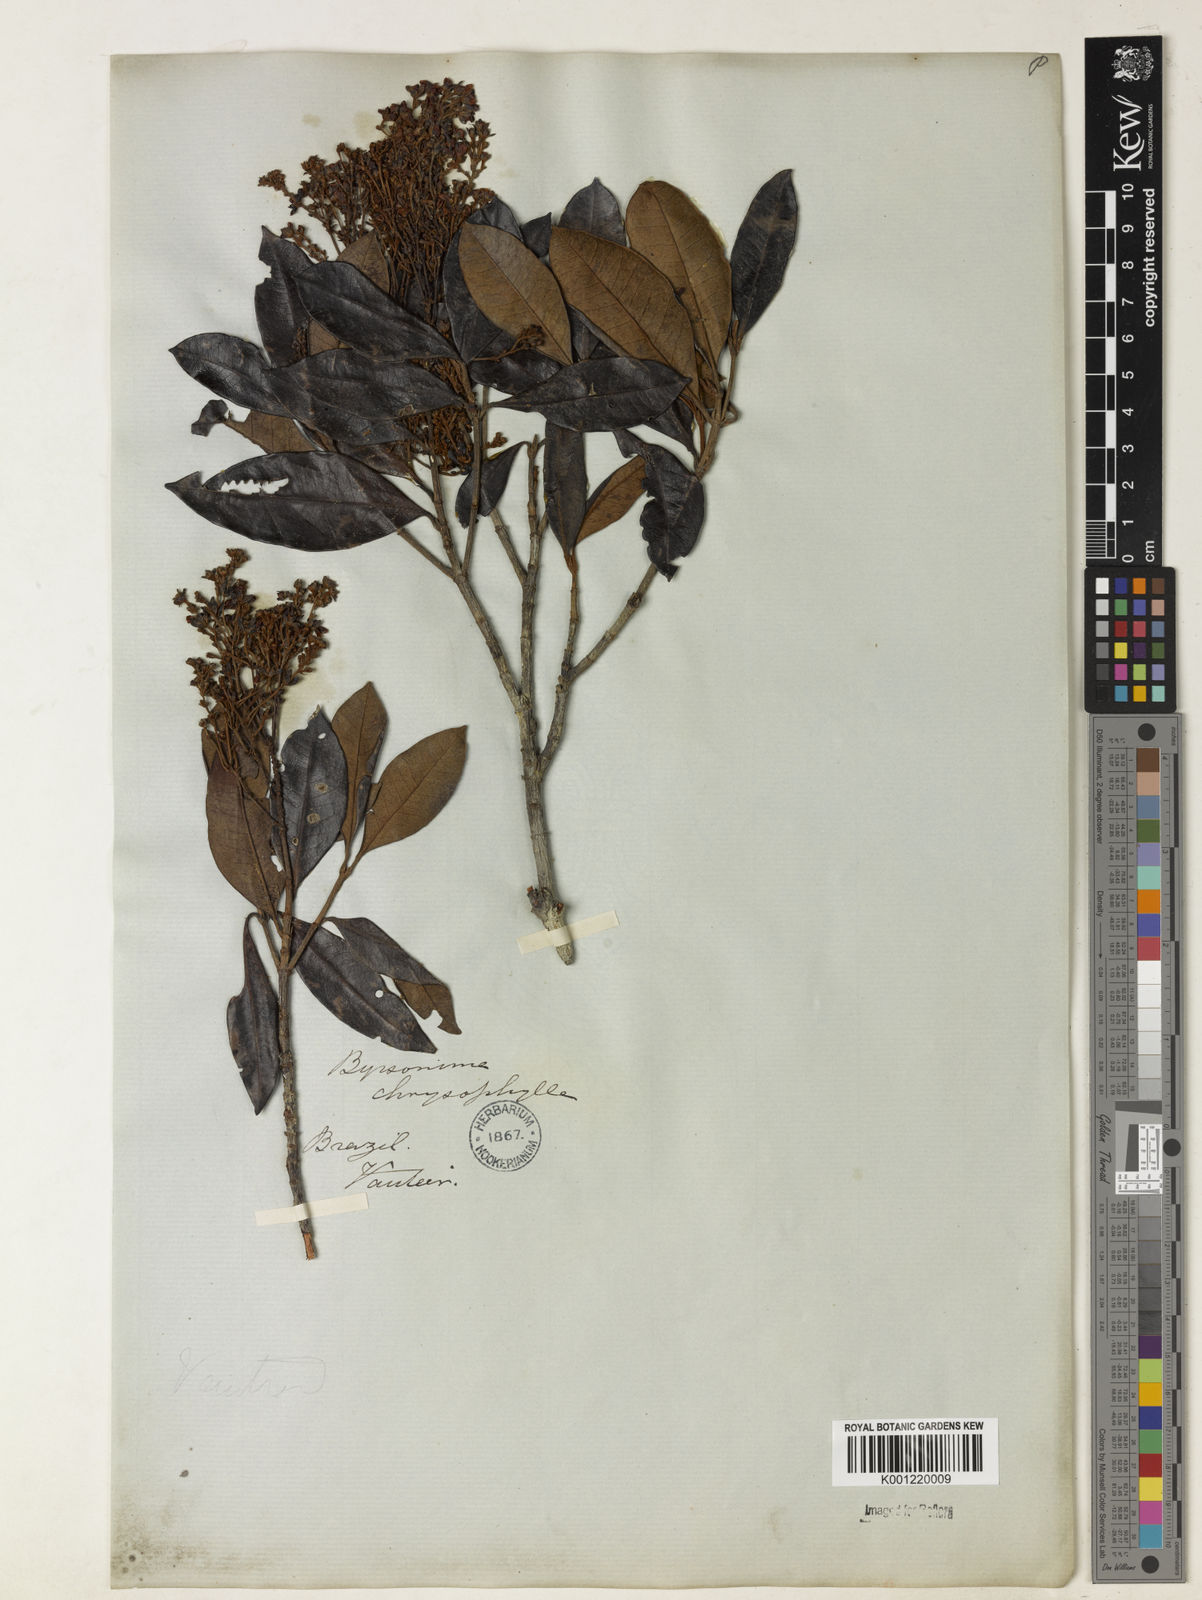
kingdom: Plantae
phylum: Tracheophyta
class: Magnoliopsida
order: Malpighiales
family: Malpighiaceae
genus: Byrsonima
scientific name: Byrsonima sericea
